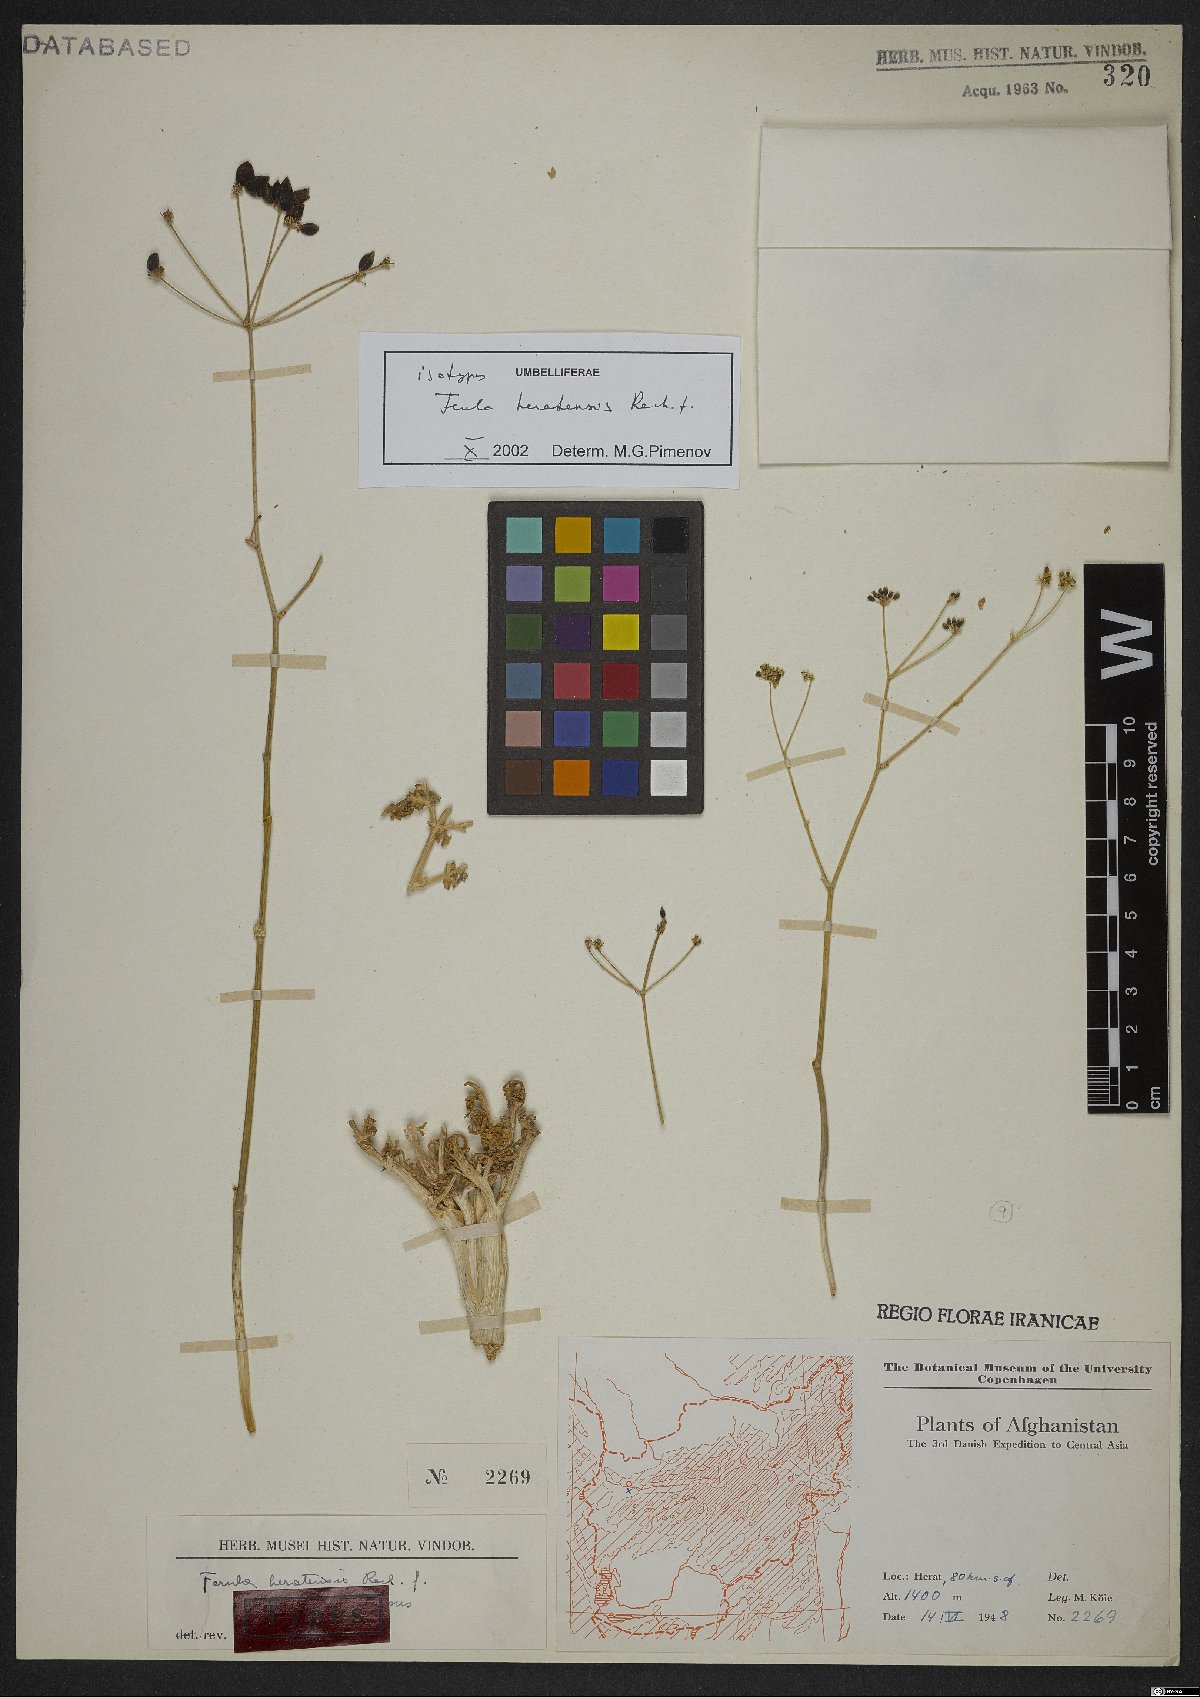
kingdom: Plantae
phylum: Tracheophyta
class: Magnoliopsida
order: Apiales
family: Apiaceae
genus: Ferula
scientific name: Ferula heratensis
